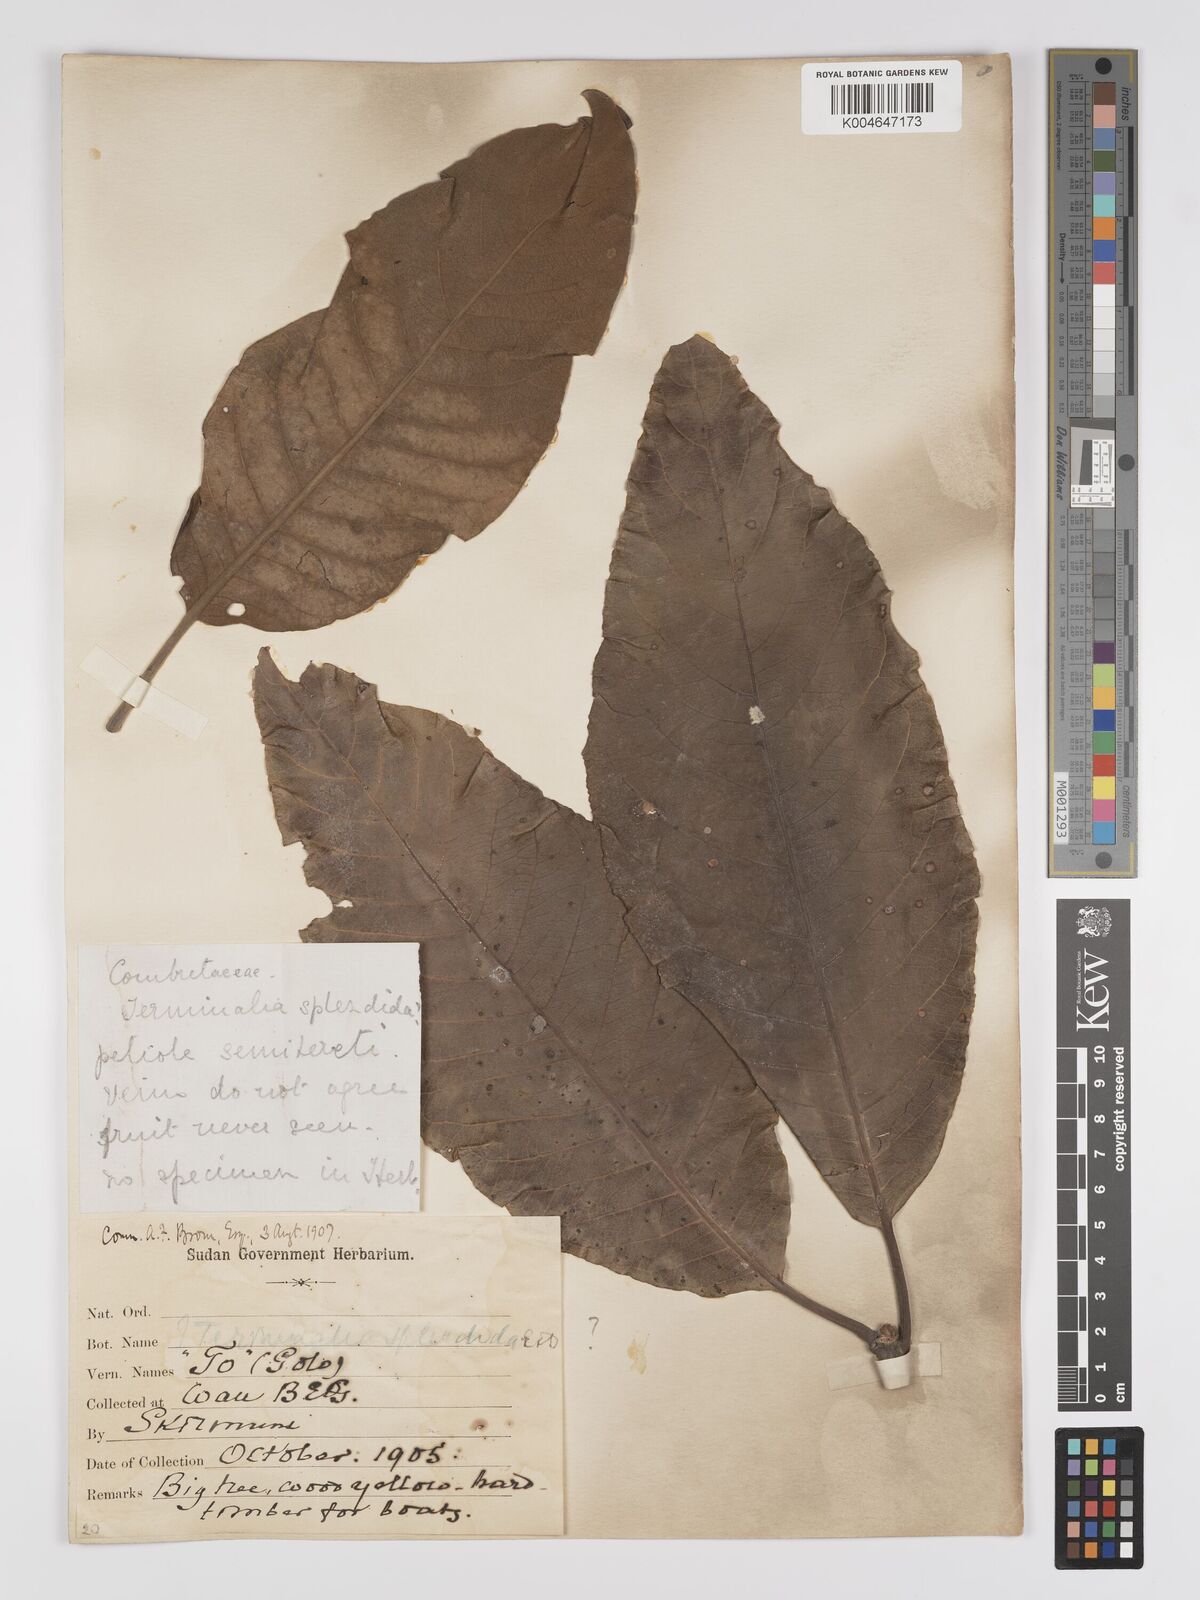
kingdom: Plantae
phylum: Tracheophyta
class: Magnoliopsida
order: Myrtales
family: Combretaceae
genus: Terminalia
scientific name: Terminalia mollis
